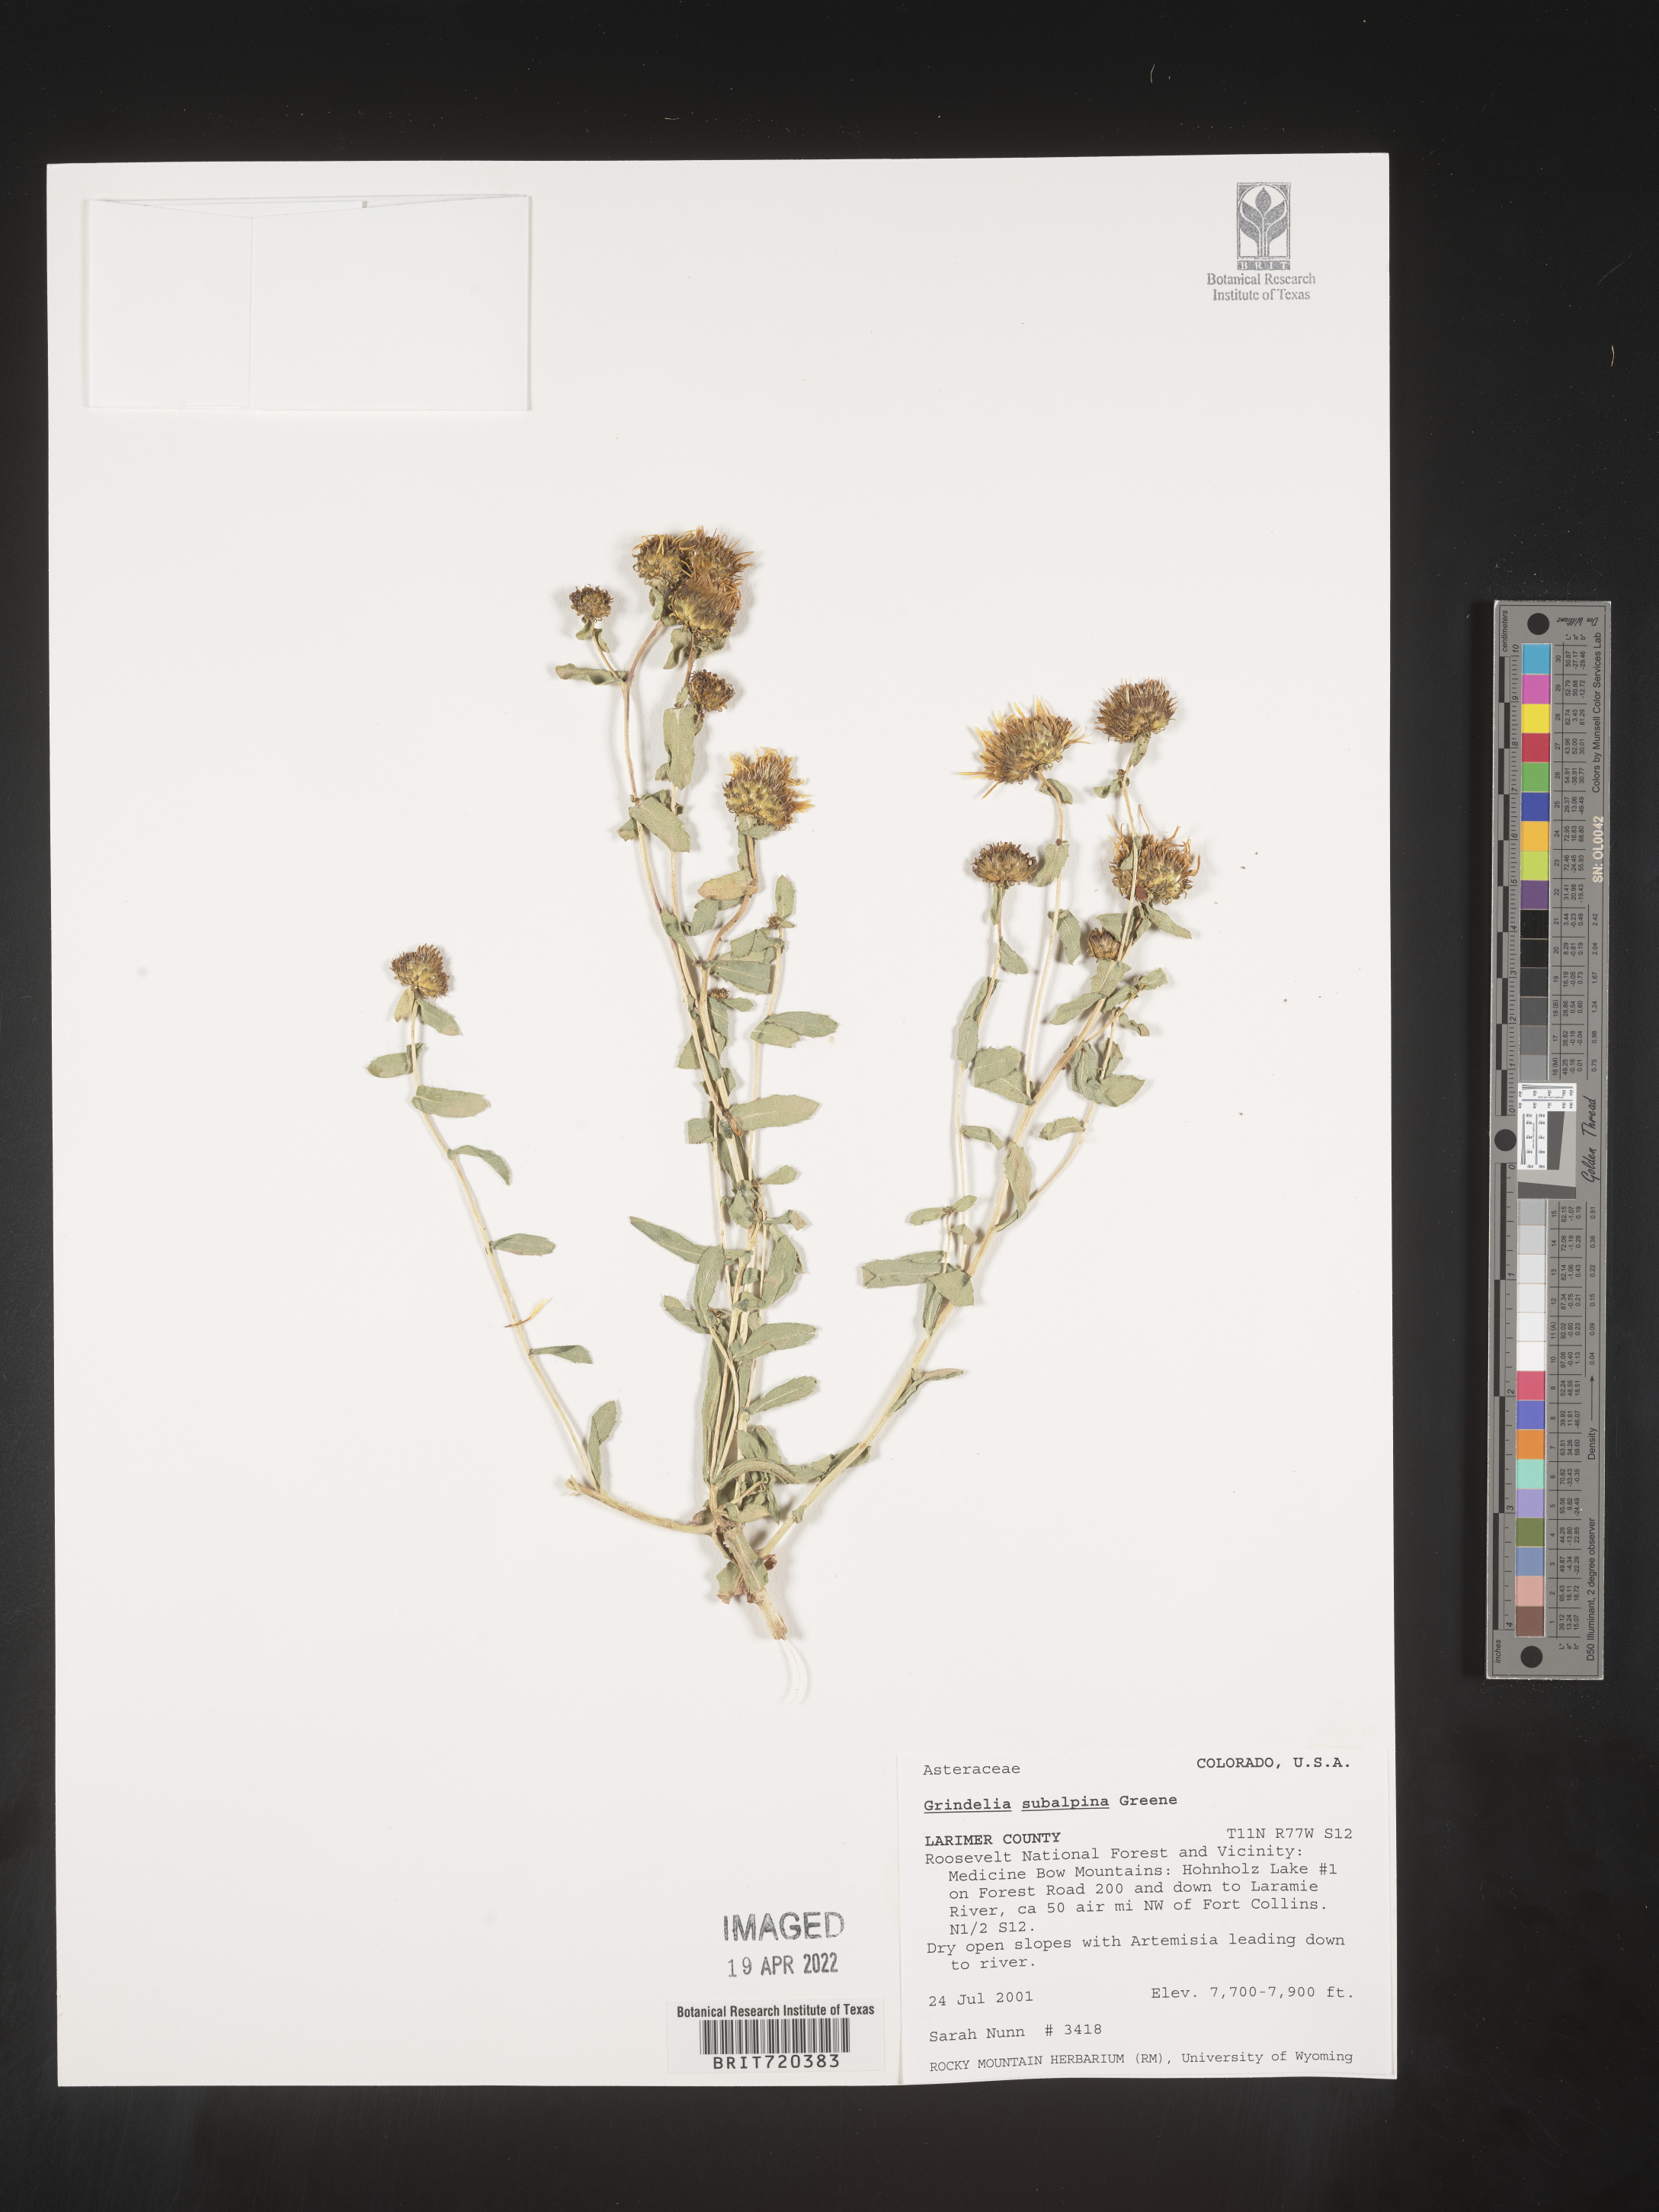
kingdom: Plantae
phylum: Tracheophyta
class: Magnoliopsida
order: Asterales
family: Asteraceae
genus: Grindelia
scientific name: Grindelia subalpina
